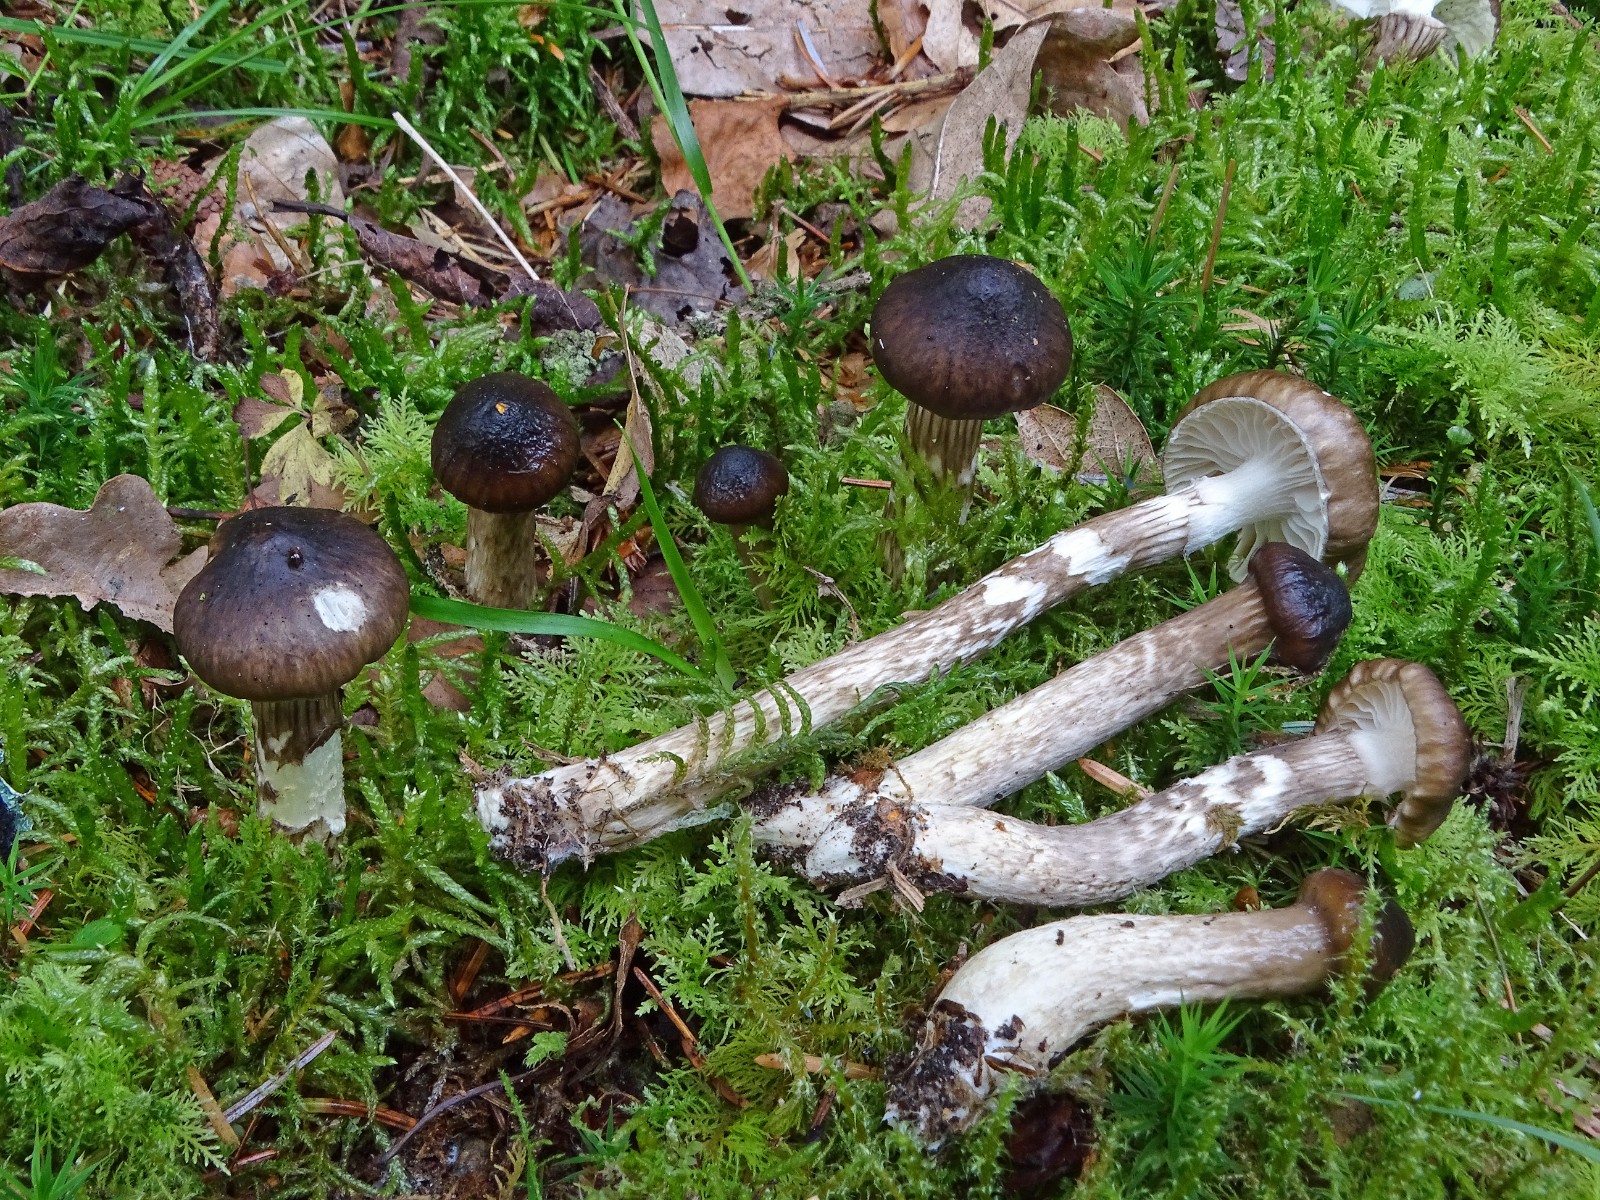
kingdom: Fungi
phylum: Basidiomycota
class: Agaricomycetes
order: Agaricales
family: Hygrophoraceae
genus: Hygrophorus
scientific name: Hygrophorus olivaceoalbus
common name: hvidbrun sneglehat
